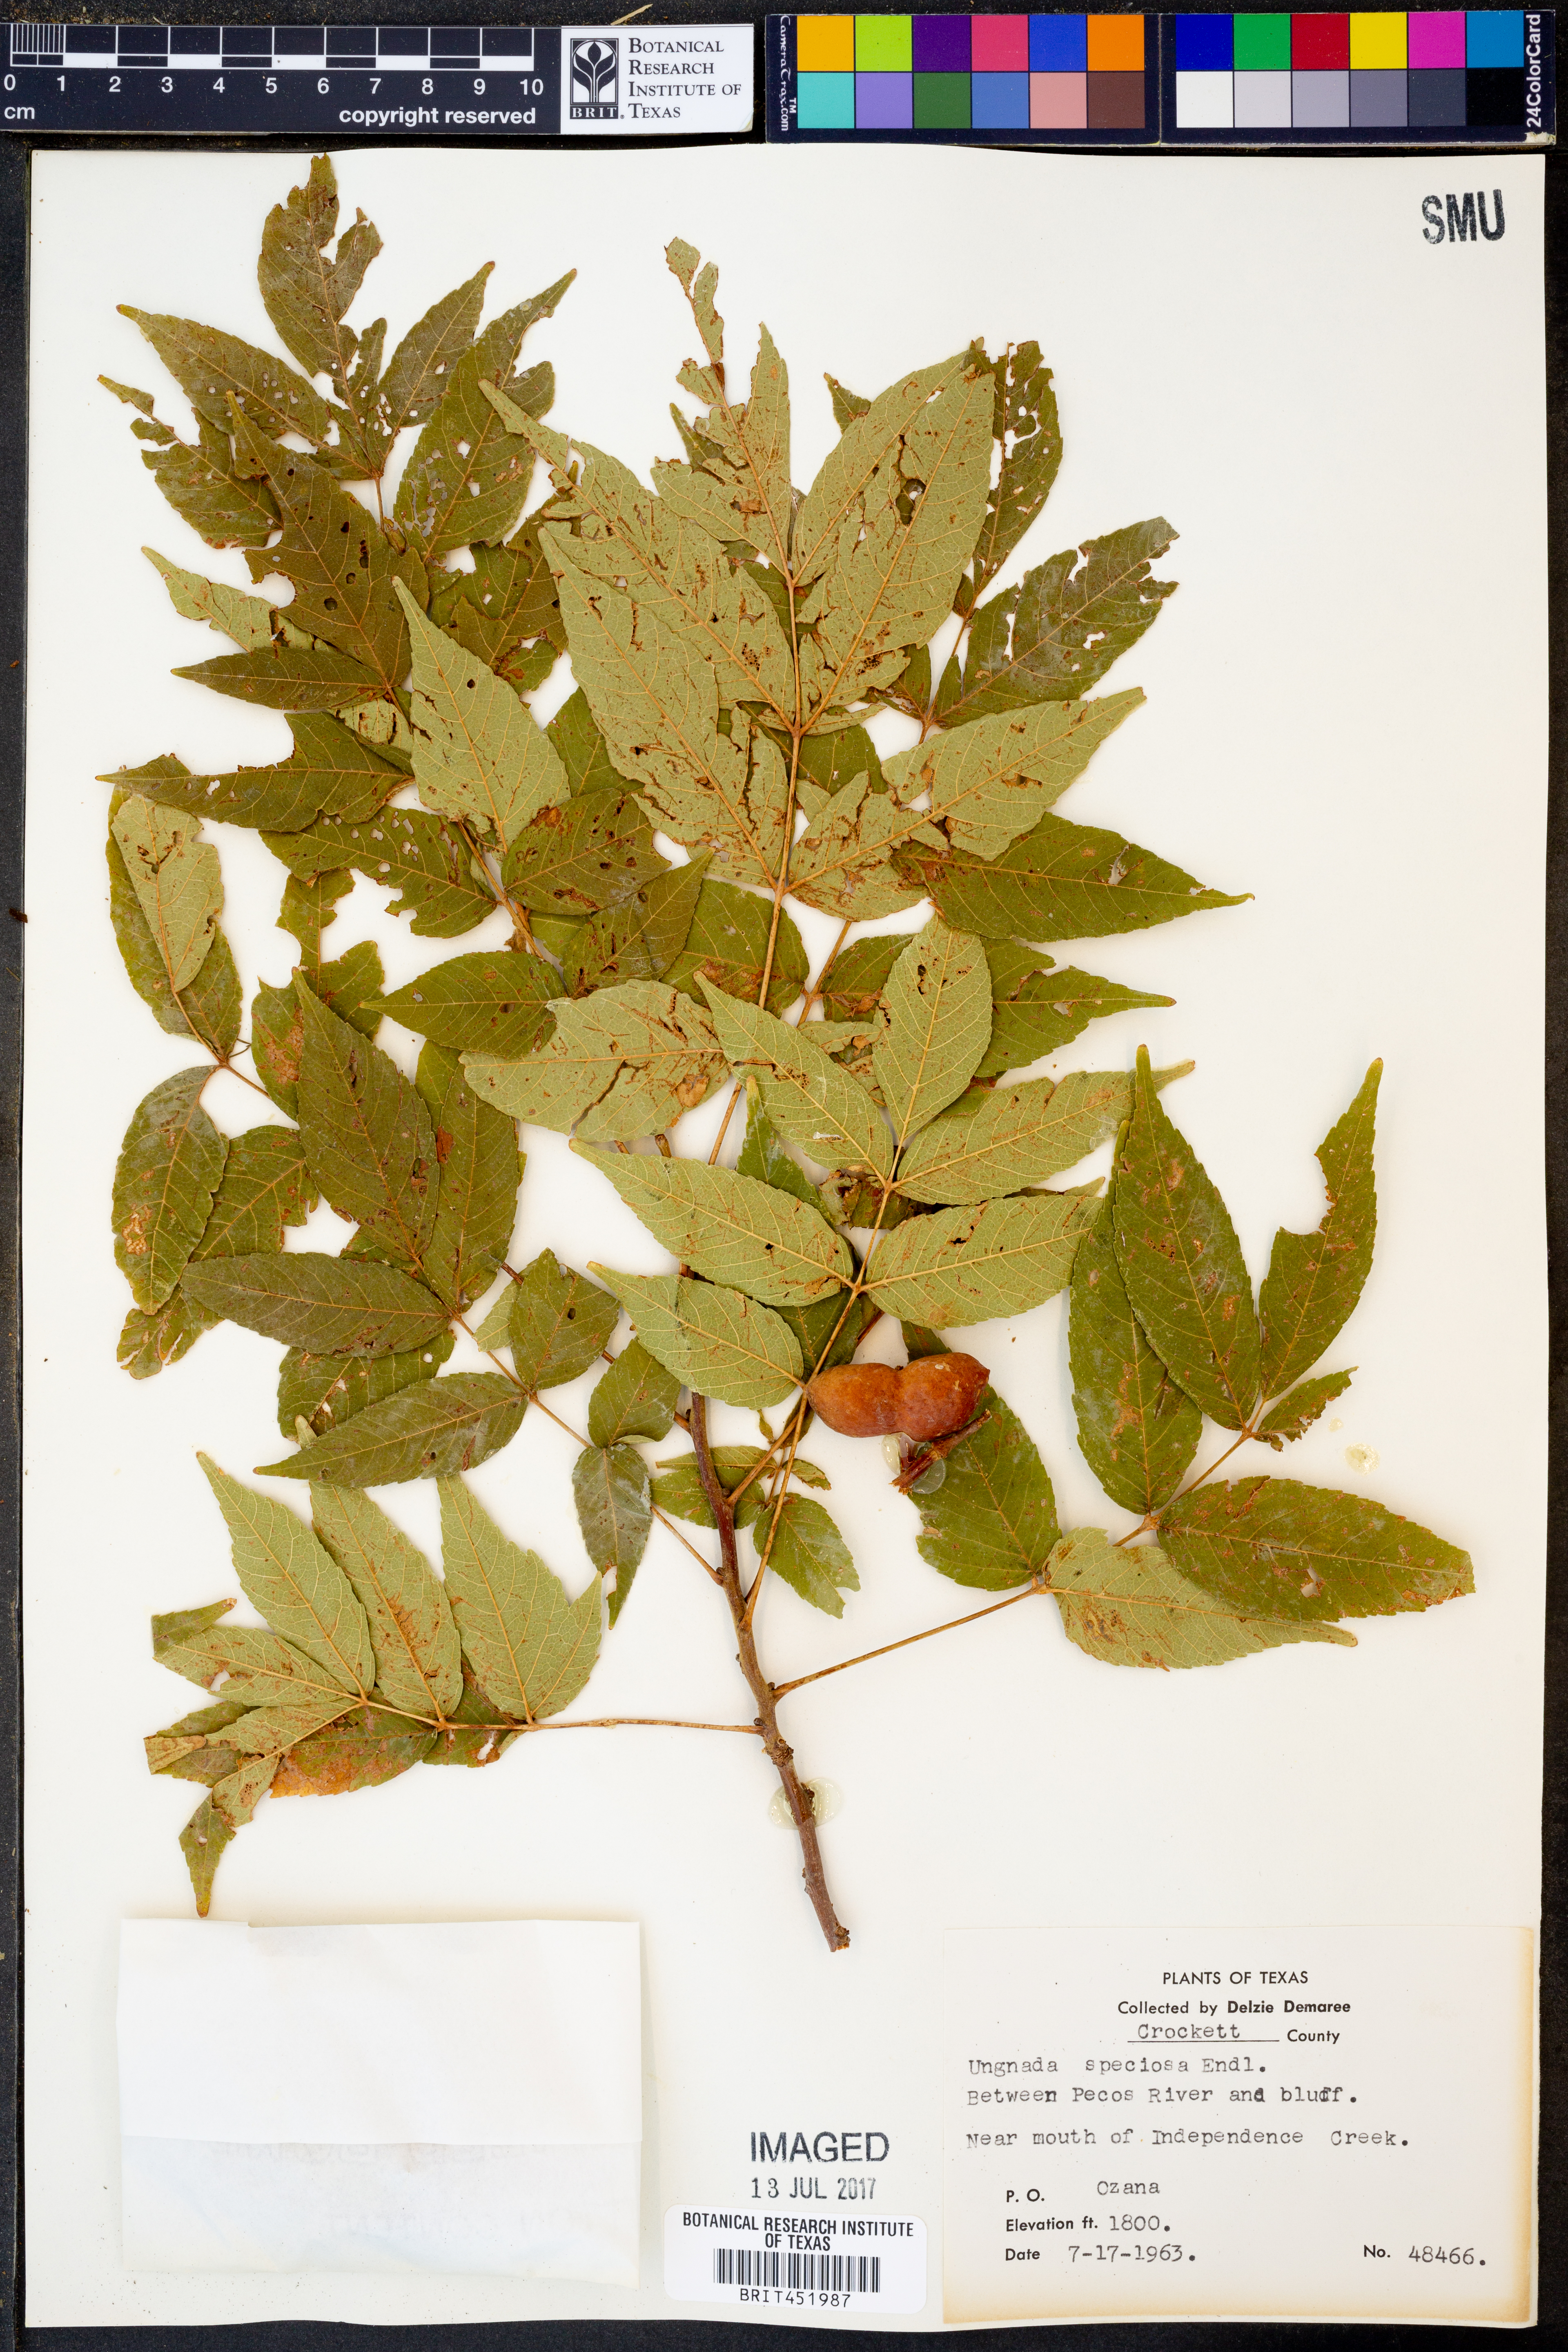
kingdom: Plantae
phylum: Tracheophyta
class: Magnoliopsida
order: Sapindales
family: Sapindaceae
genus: Ungnadia
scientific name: Ungnadia speciosa
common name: Texas-buckeye
